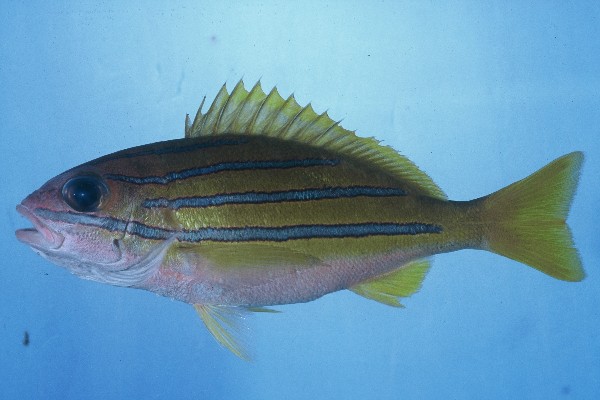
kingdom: Animalia
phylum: Chordata
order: Perciformes
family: Lutjanidae
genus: Lutjanus
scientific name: Lutjanus bengalensis
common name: Bengal snapper
